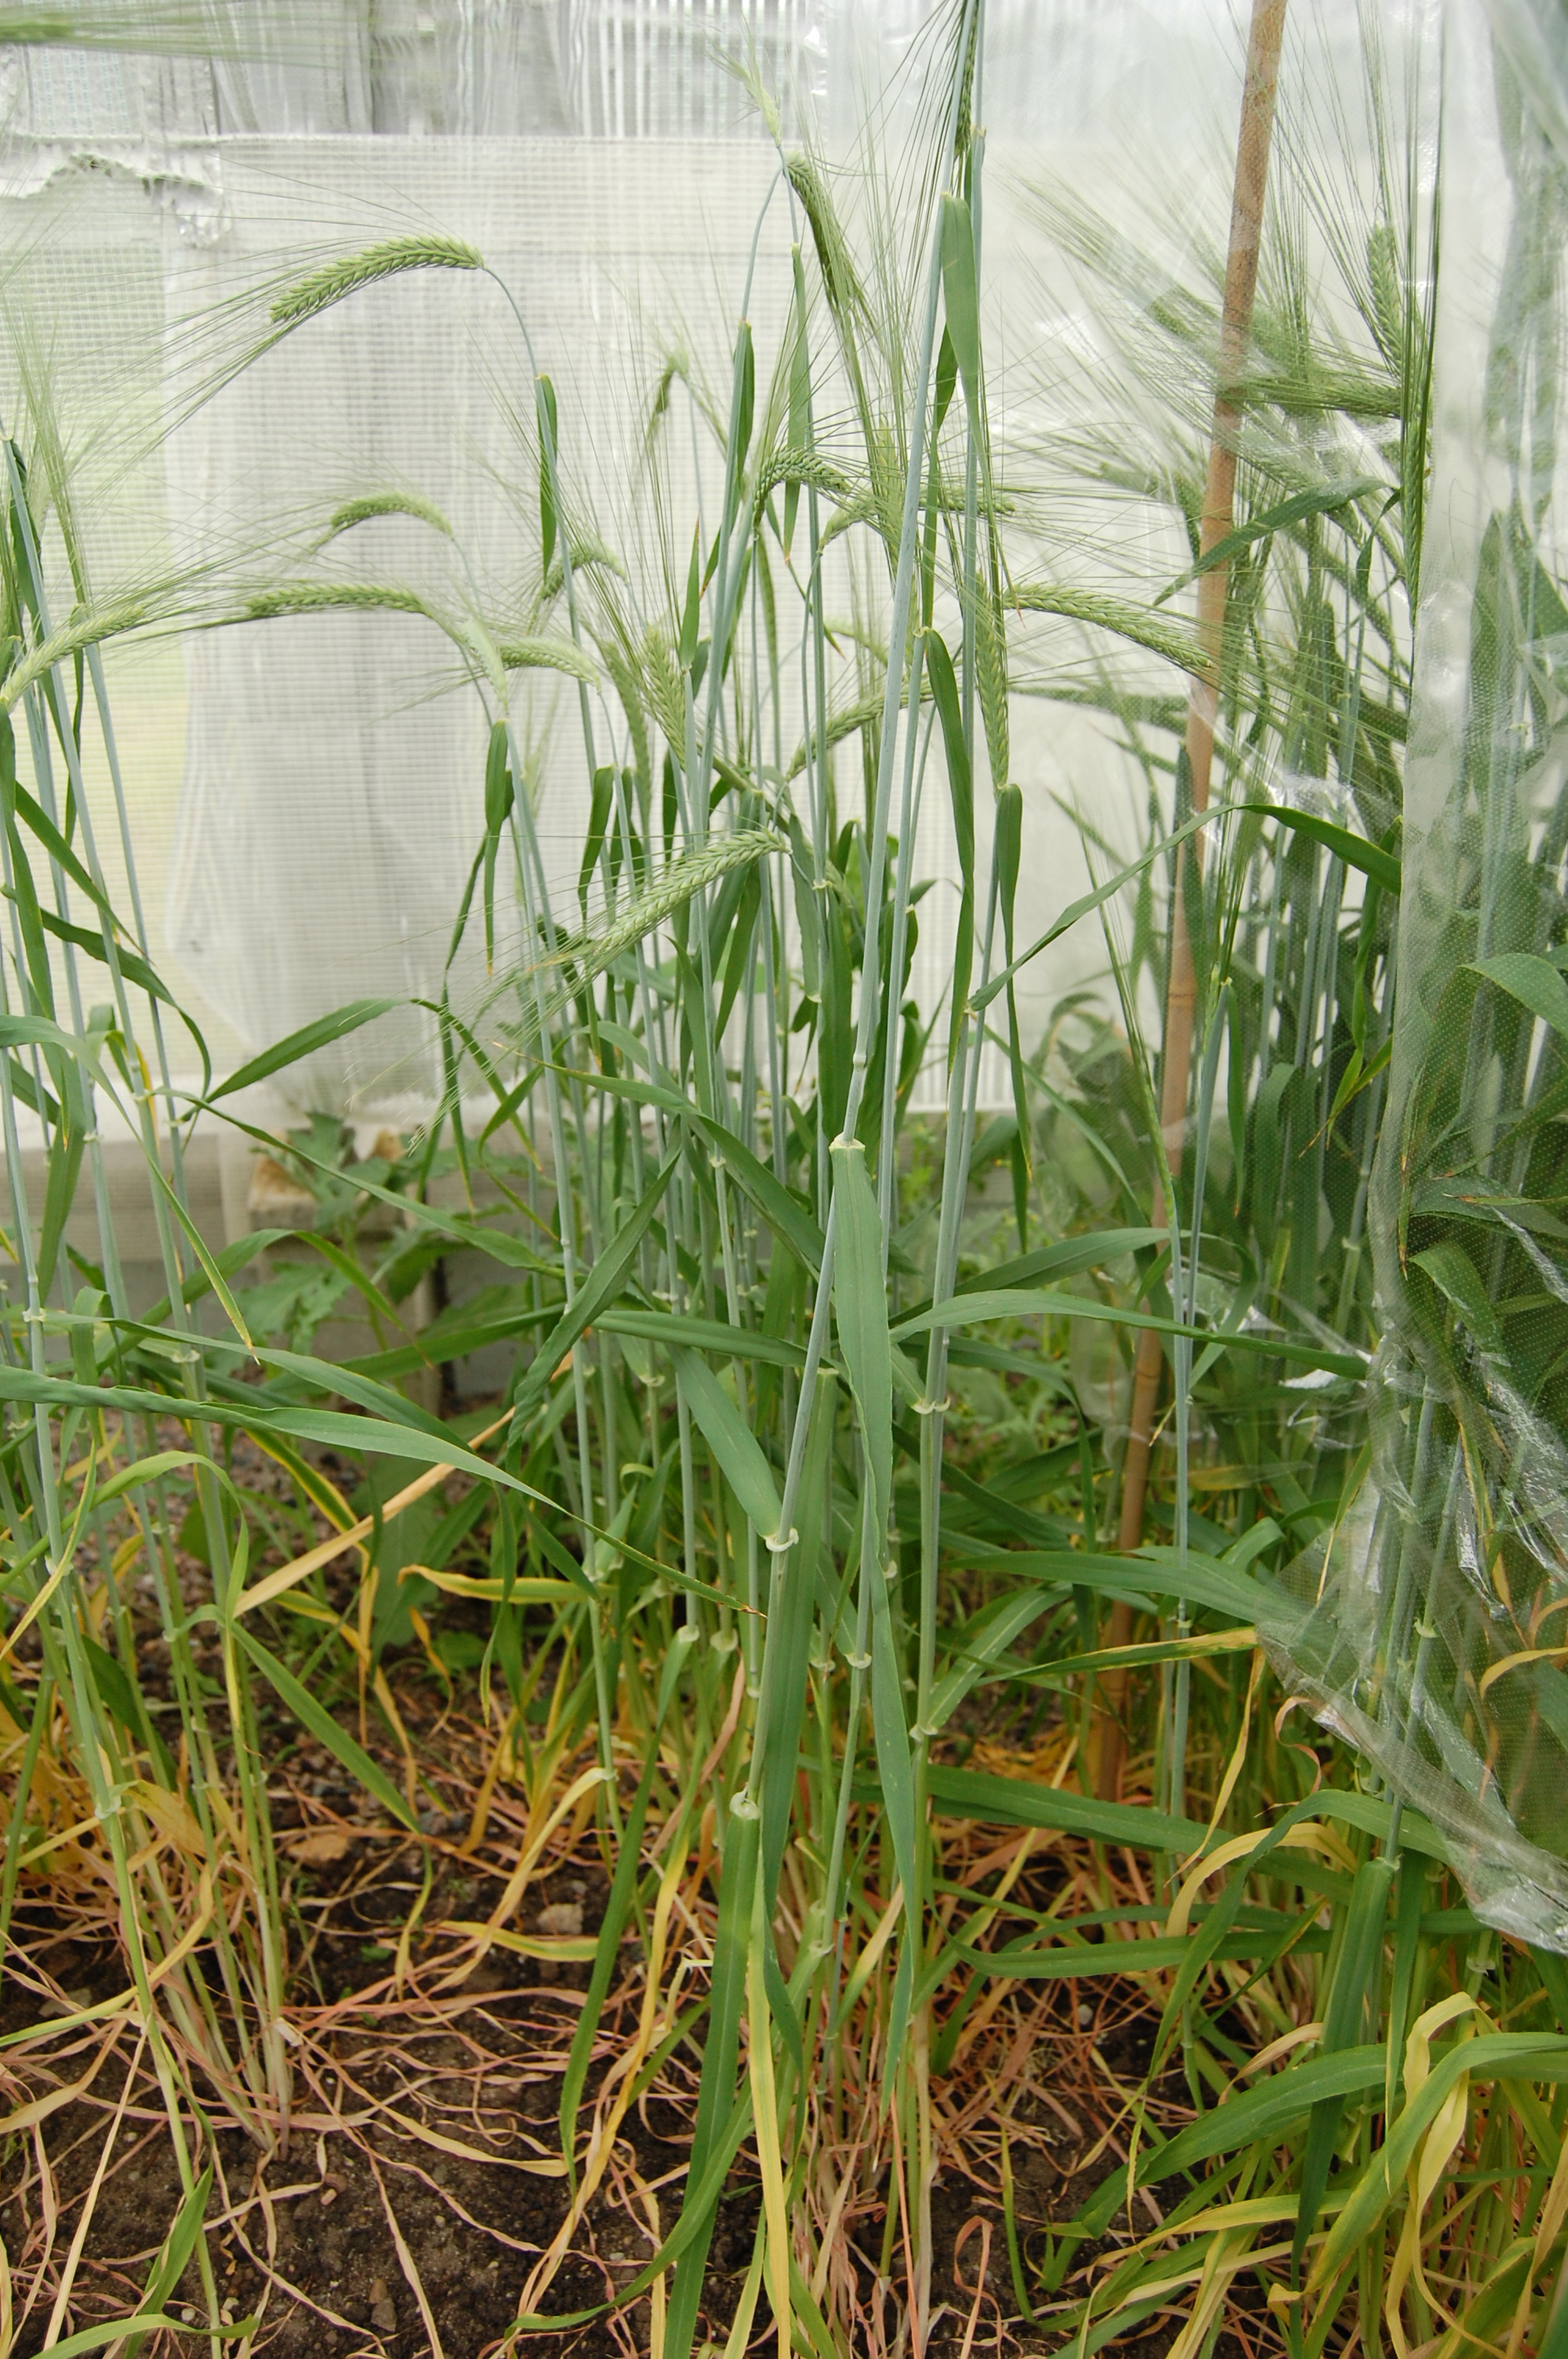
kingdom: Plantae
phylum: Tracheophyta
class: Liliopsida
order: Poales
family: Poaceae
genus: Hordeum
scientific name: Hordeum vulgare
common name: Common barley
